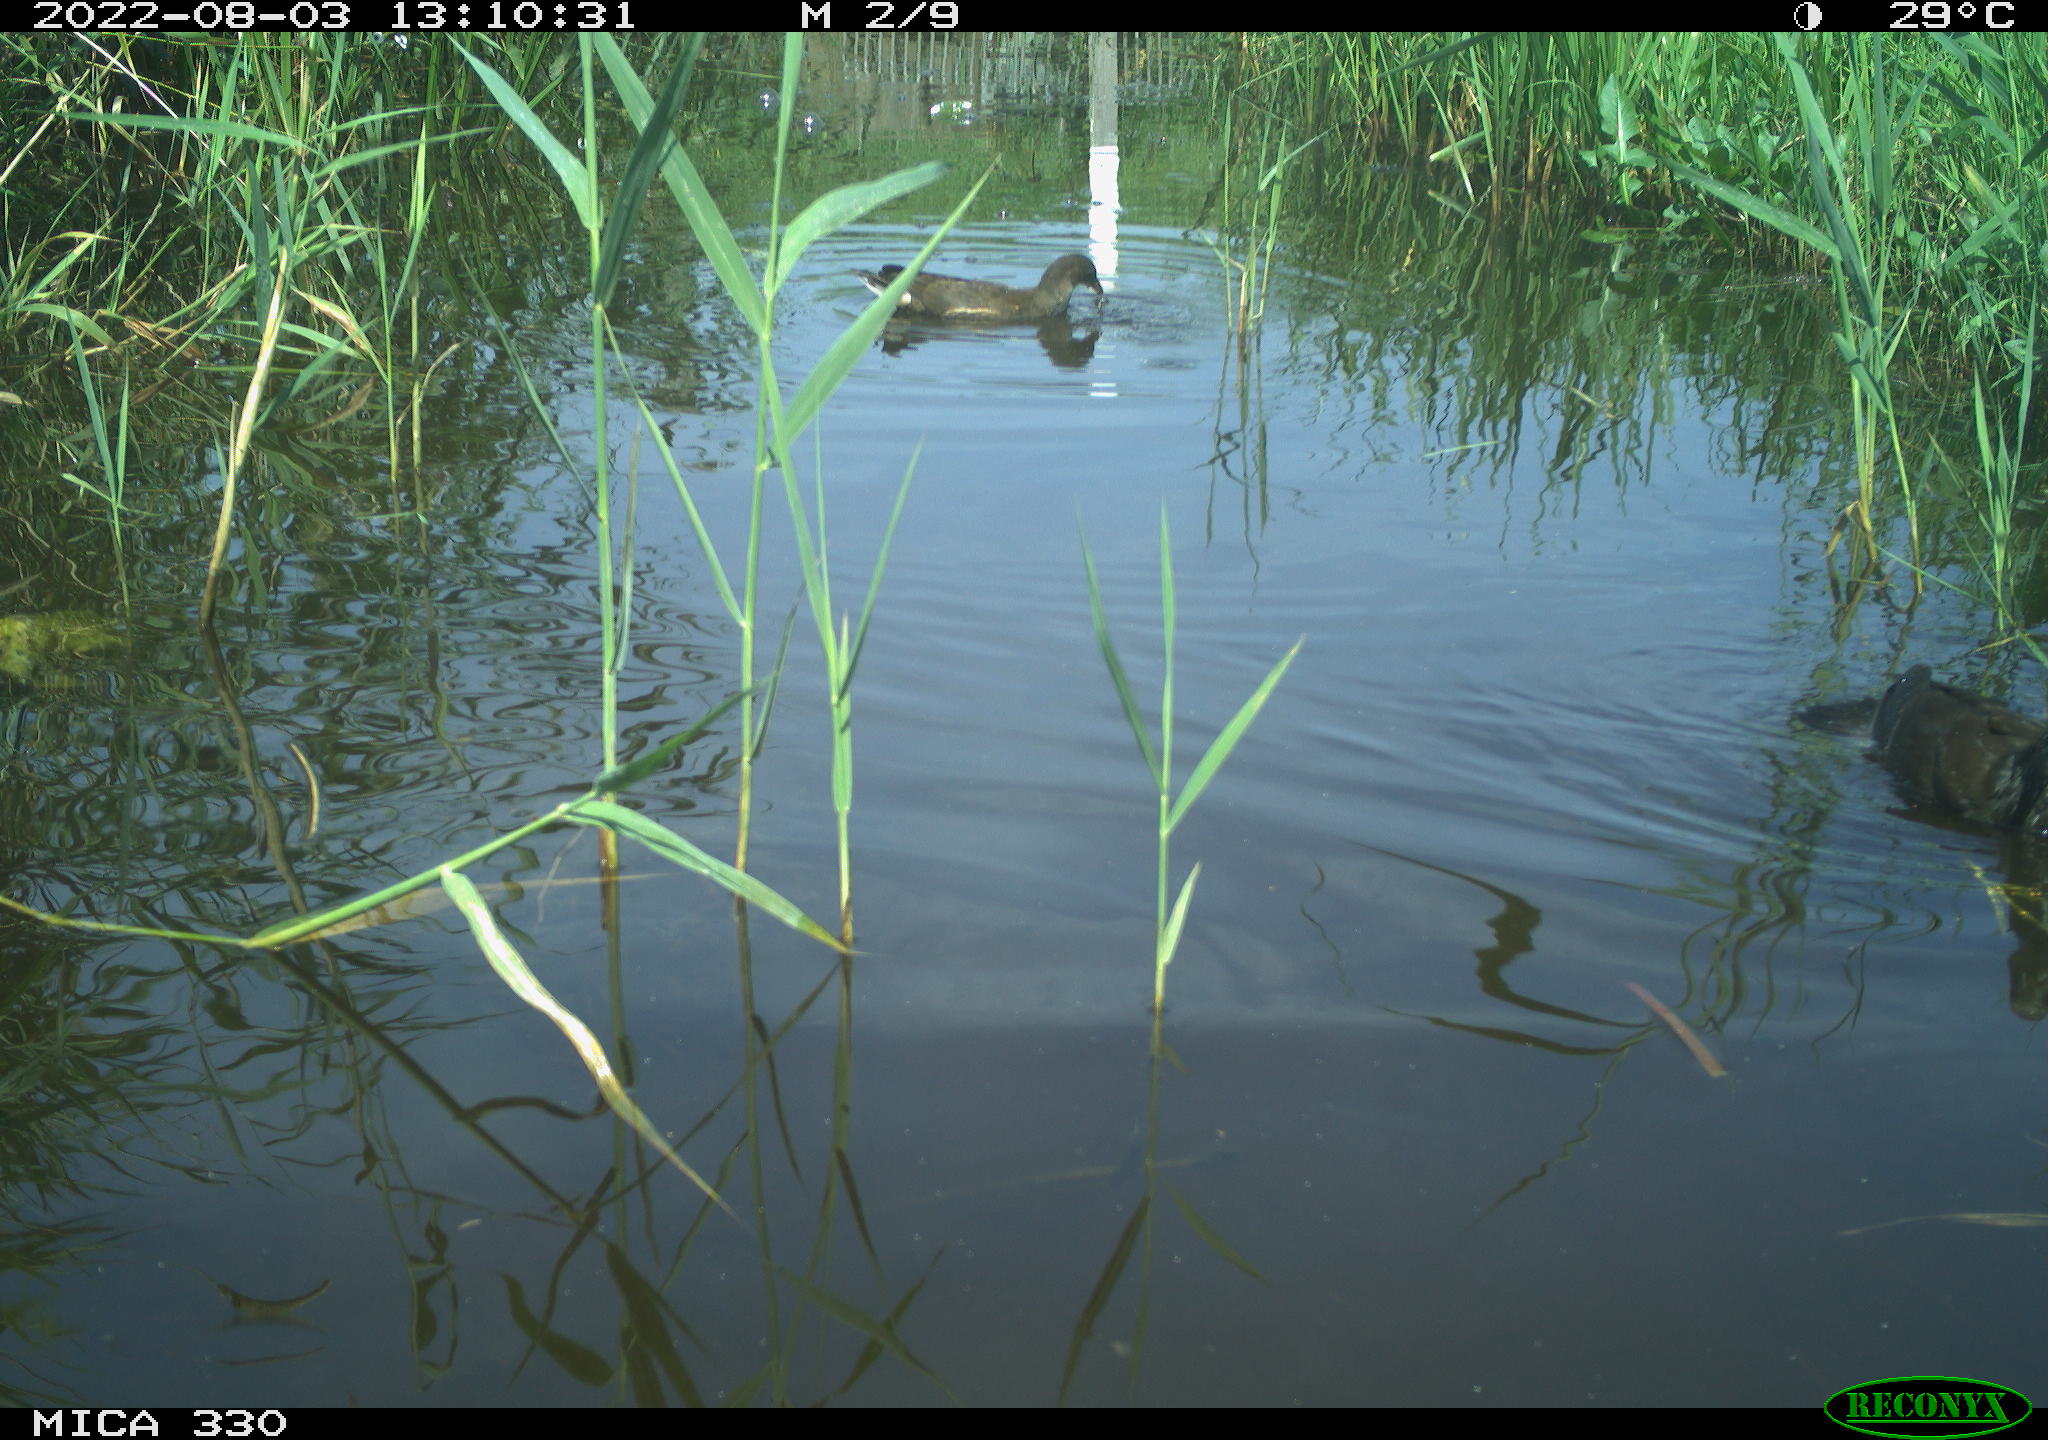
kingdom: Animalia
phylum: Chordata
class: Aves
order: Gruiformes
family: Rallidae
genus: Gallinula
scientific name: Gallinula chloropus
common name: Common moorhen
